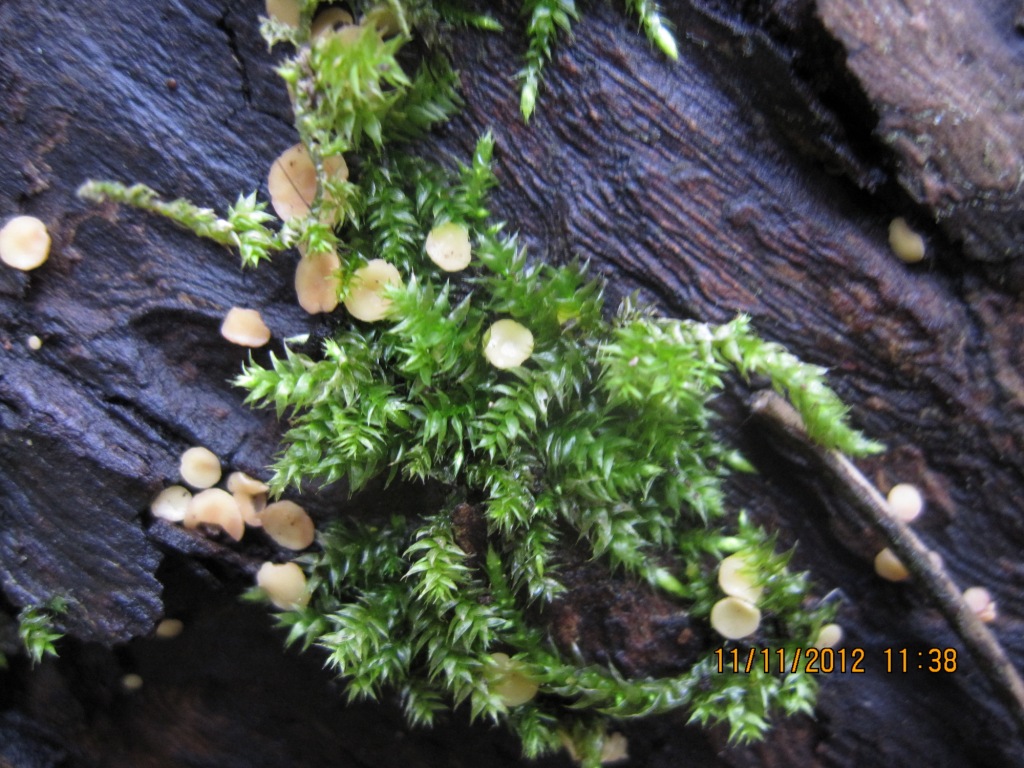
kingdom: Fungi
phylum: Ascomycota
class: Leotiomycetes
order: Helotiales
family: Helotiaceae
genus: Hymenoscyphus
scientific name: Hymenoscyphus calyculus
